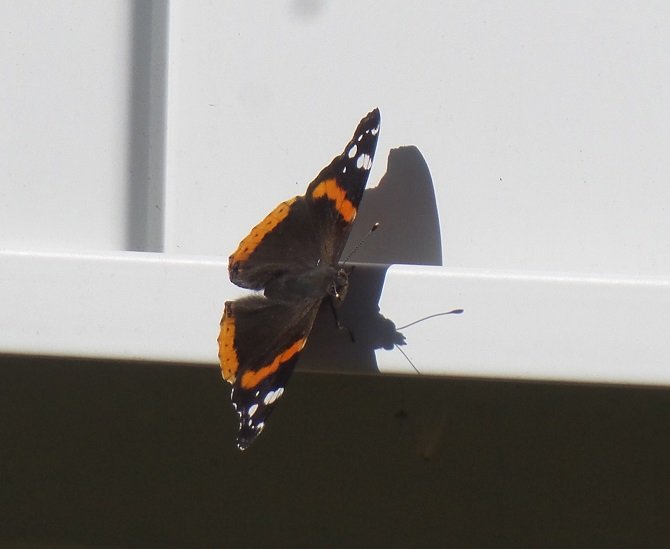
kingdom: Animalia
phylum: Arthropoda
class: Insecta
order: Lepidoptera
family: Nymphalidae
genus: Vanessa
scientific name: Vanessa atalanta
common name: Red Admiral
